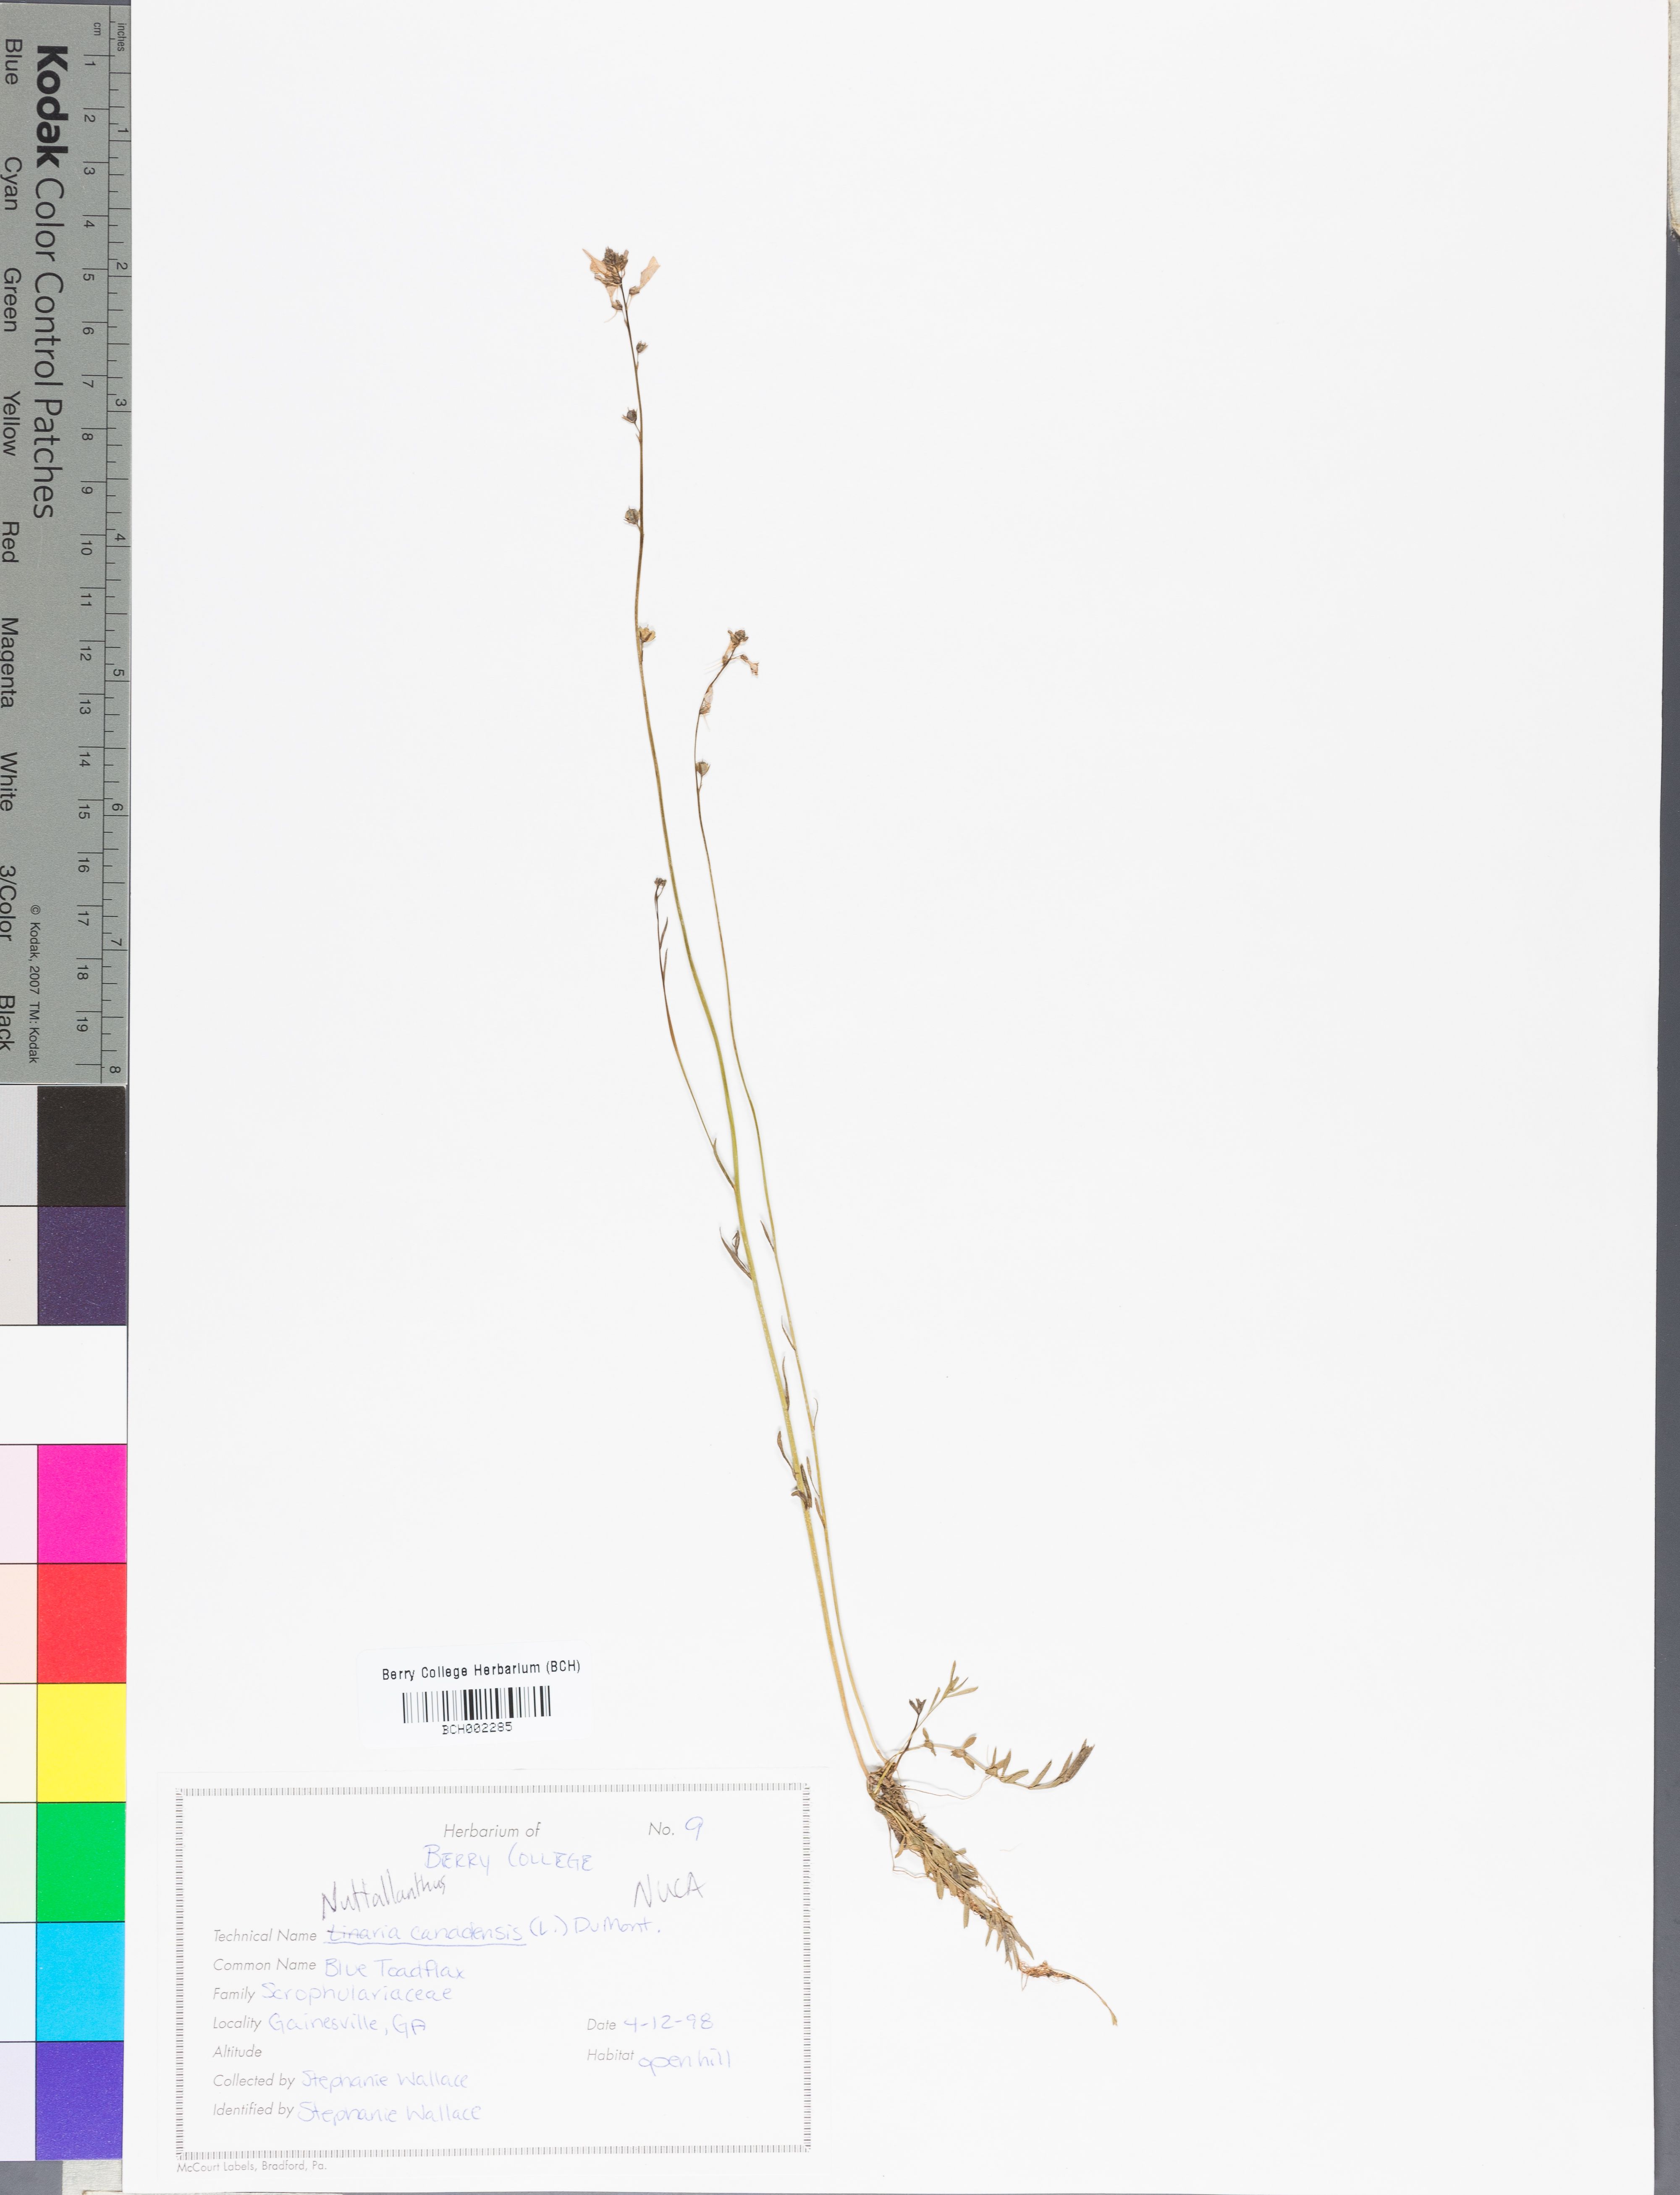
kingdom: Plantae
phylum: Tracheophyta
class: Magnoliopsida
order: Lamiales
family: Plantaginaceae
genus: Nuttallanthus
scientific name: Nuttallanthus canadensis
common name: Blue toadflax
